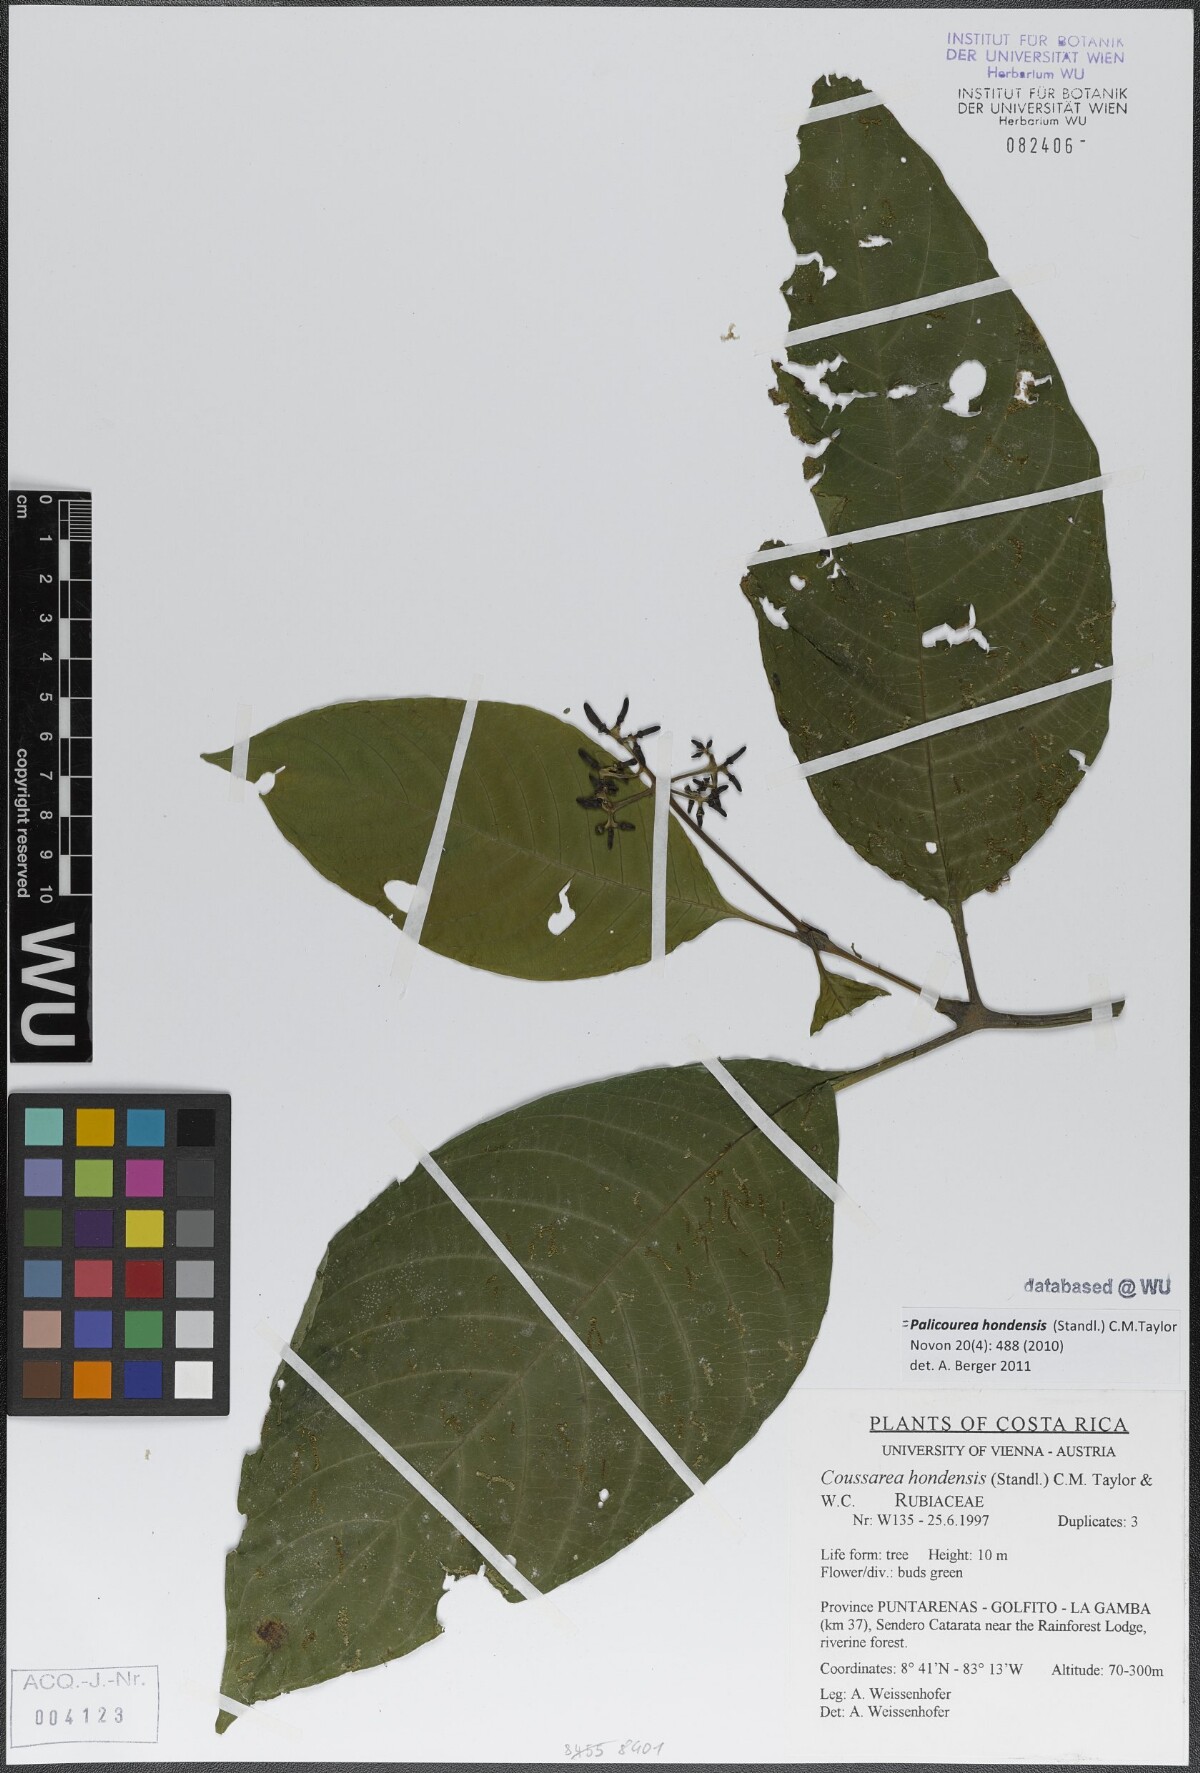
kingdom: Plantae
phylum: Tracheophyta
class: Magnoliopsida
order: Gentianales
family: Rubiaceae
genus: Palicourea
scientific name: Palicourea hondensis
